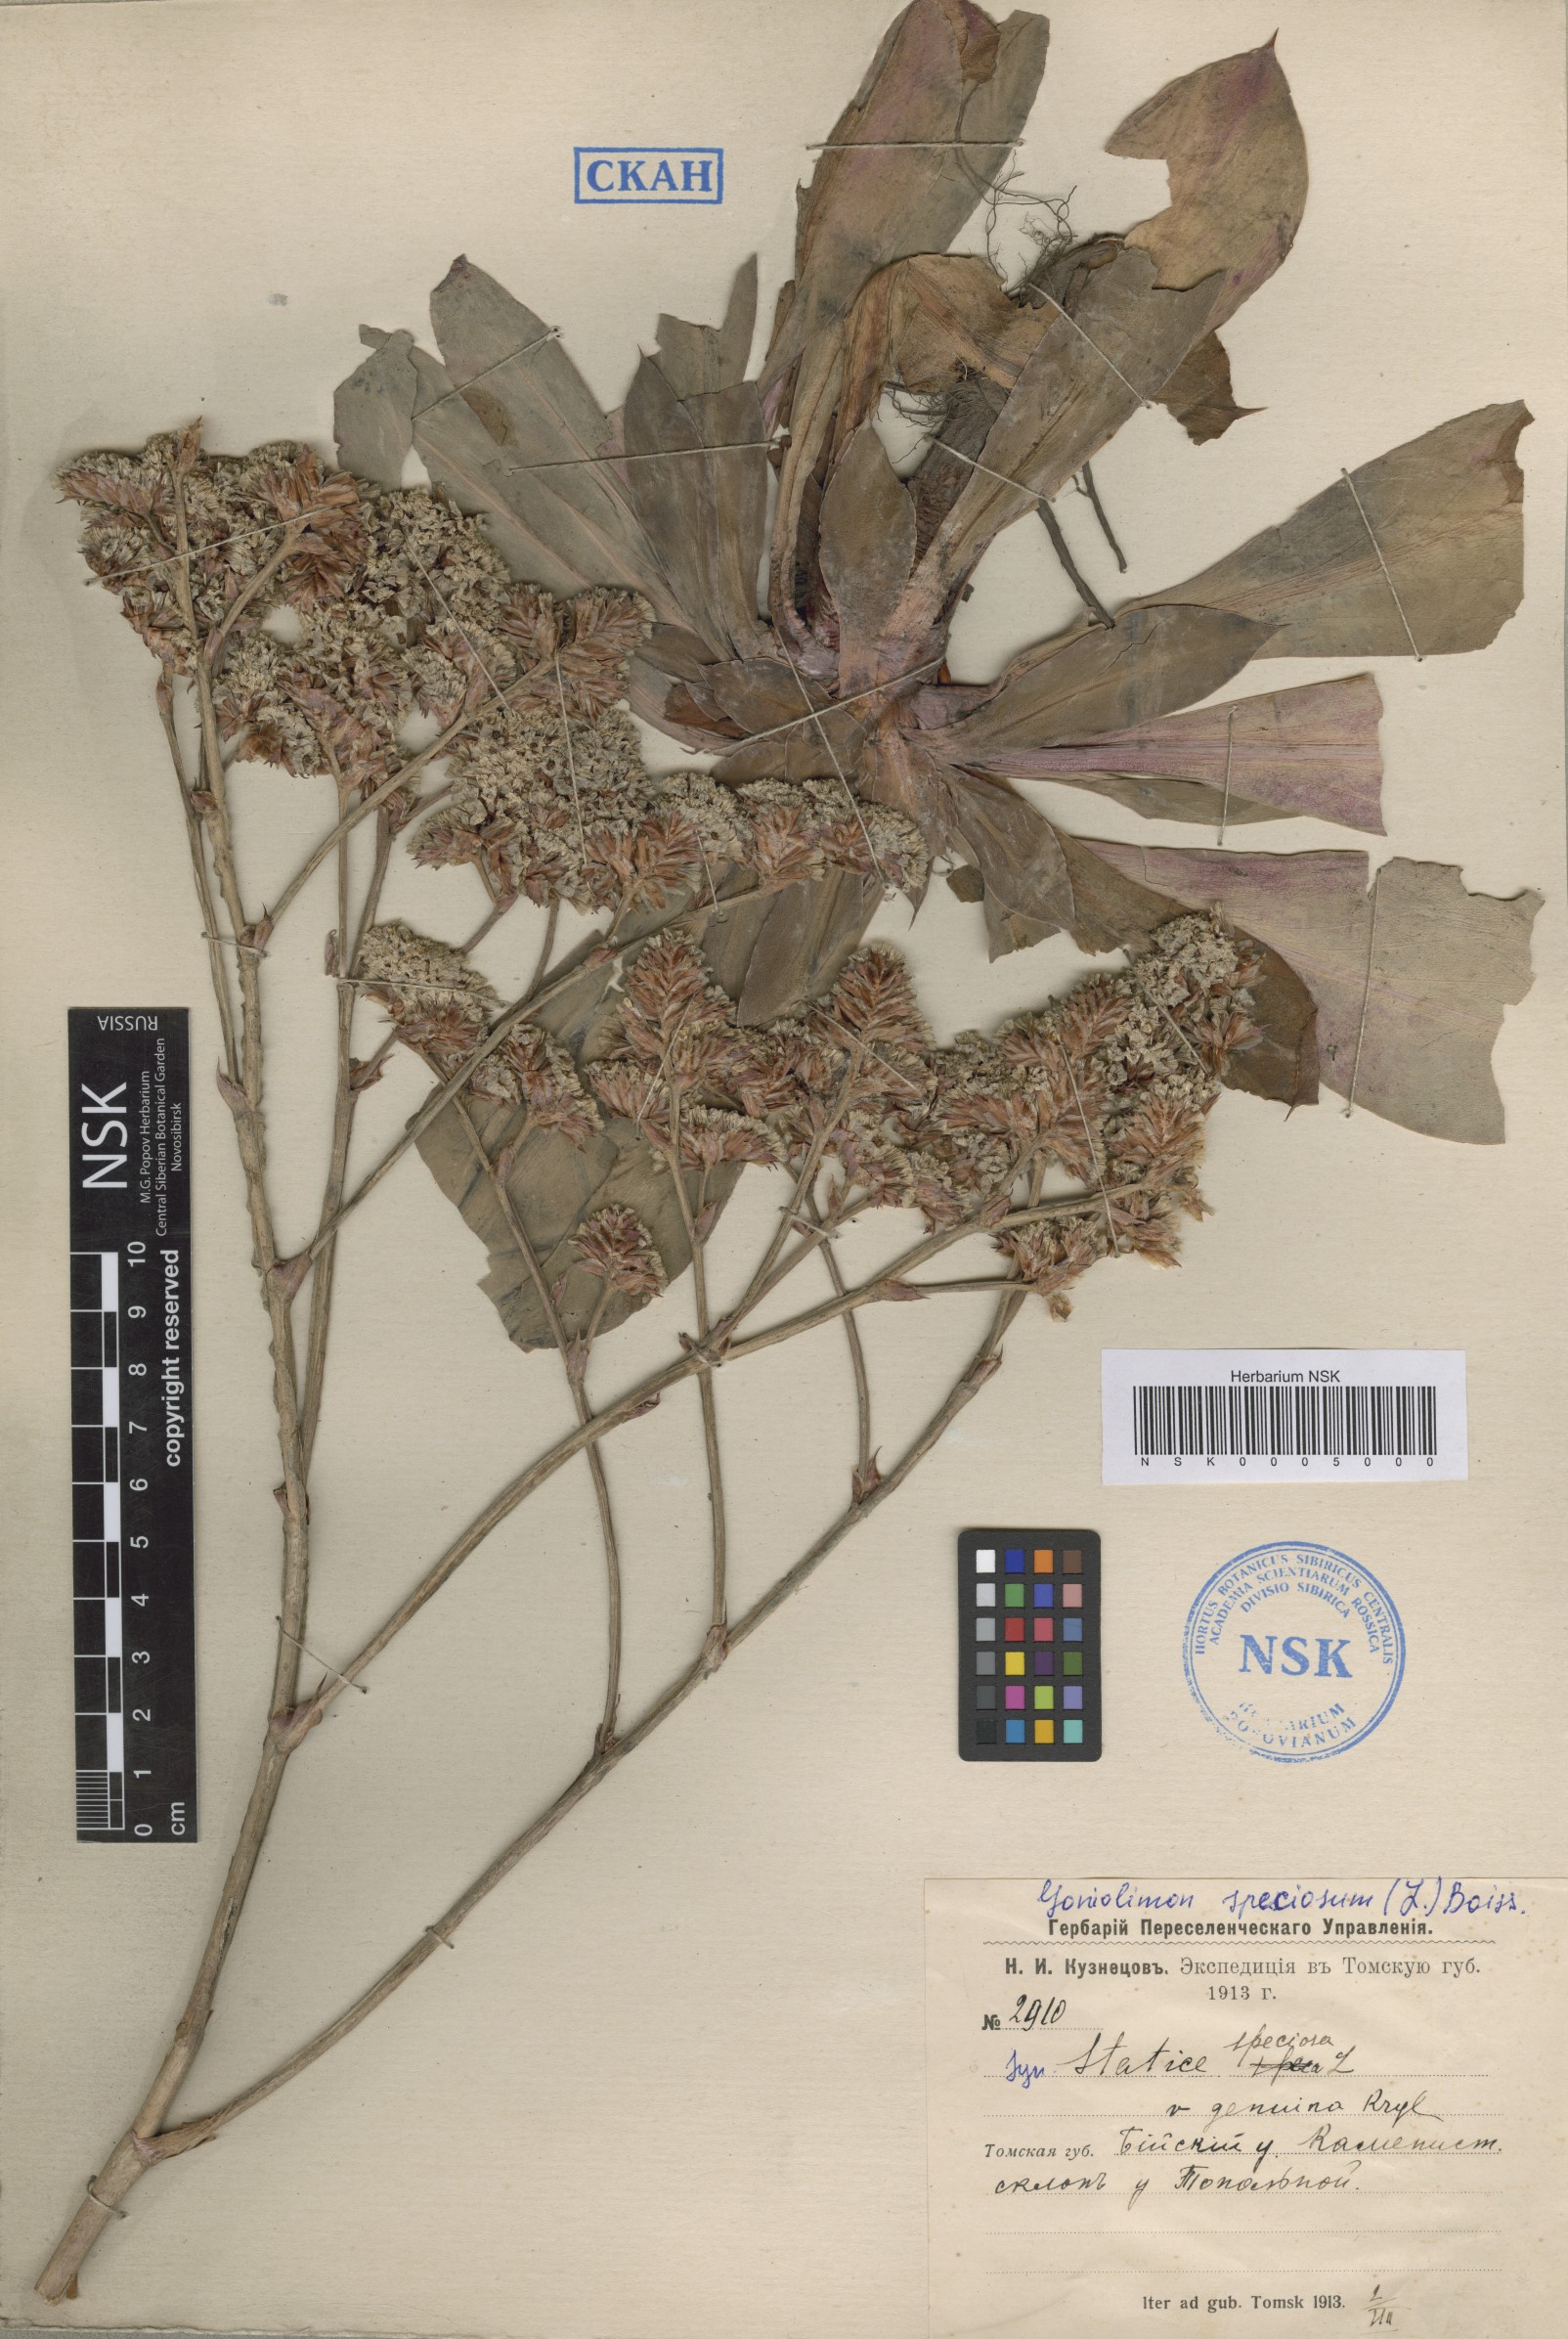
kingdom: Plantae
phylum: Tracheophyta
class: Magnoliopsida
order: Caryophyllales
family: Plumbaginaceae
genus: Goniolimon
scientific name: Goniolimon speciosum
